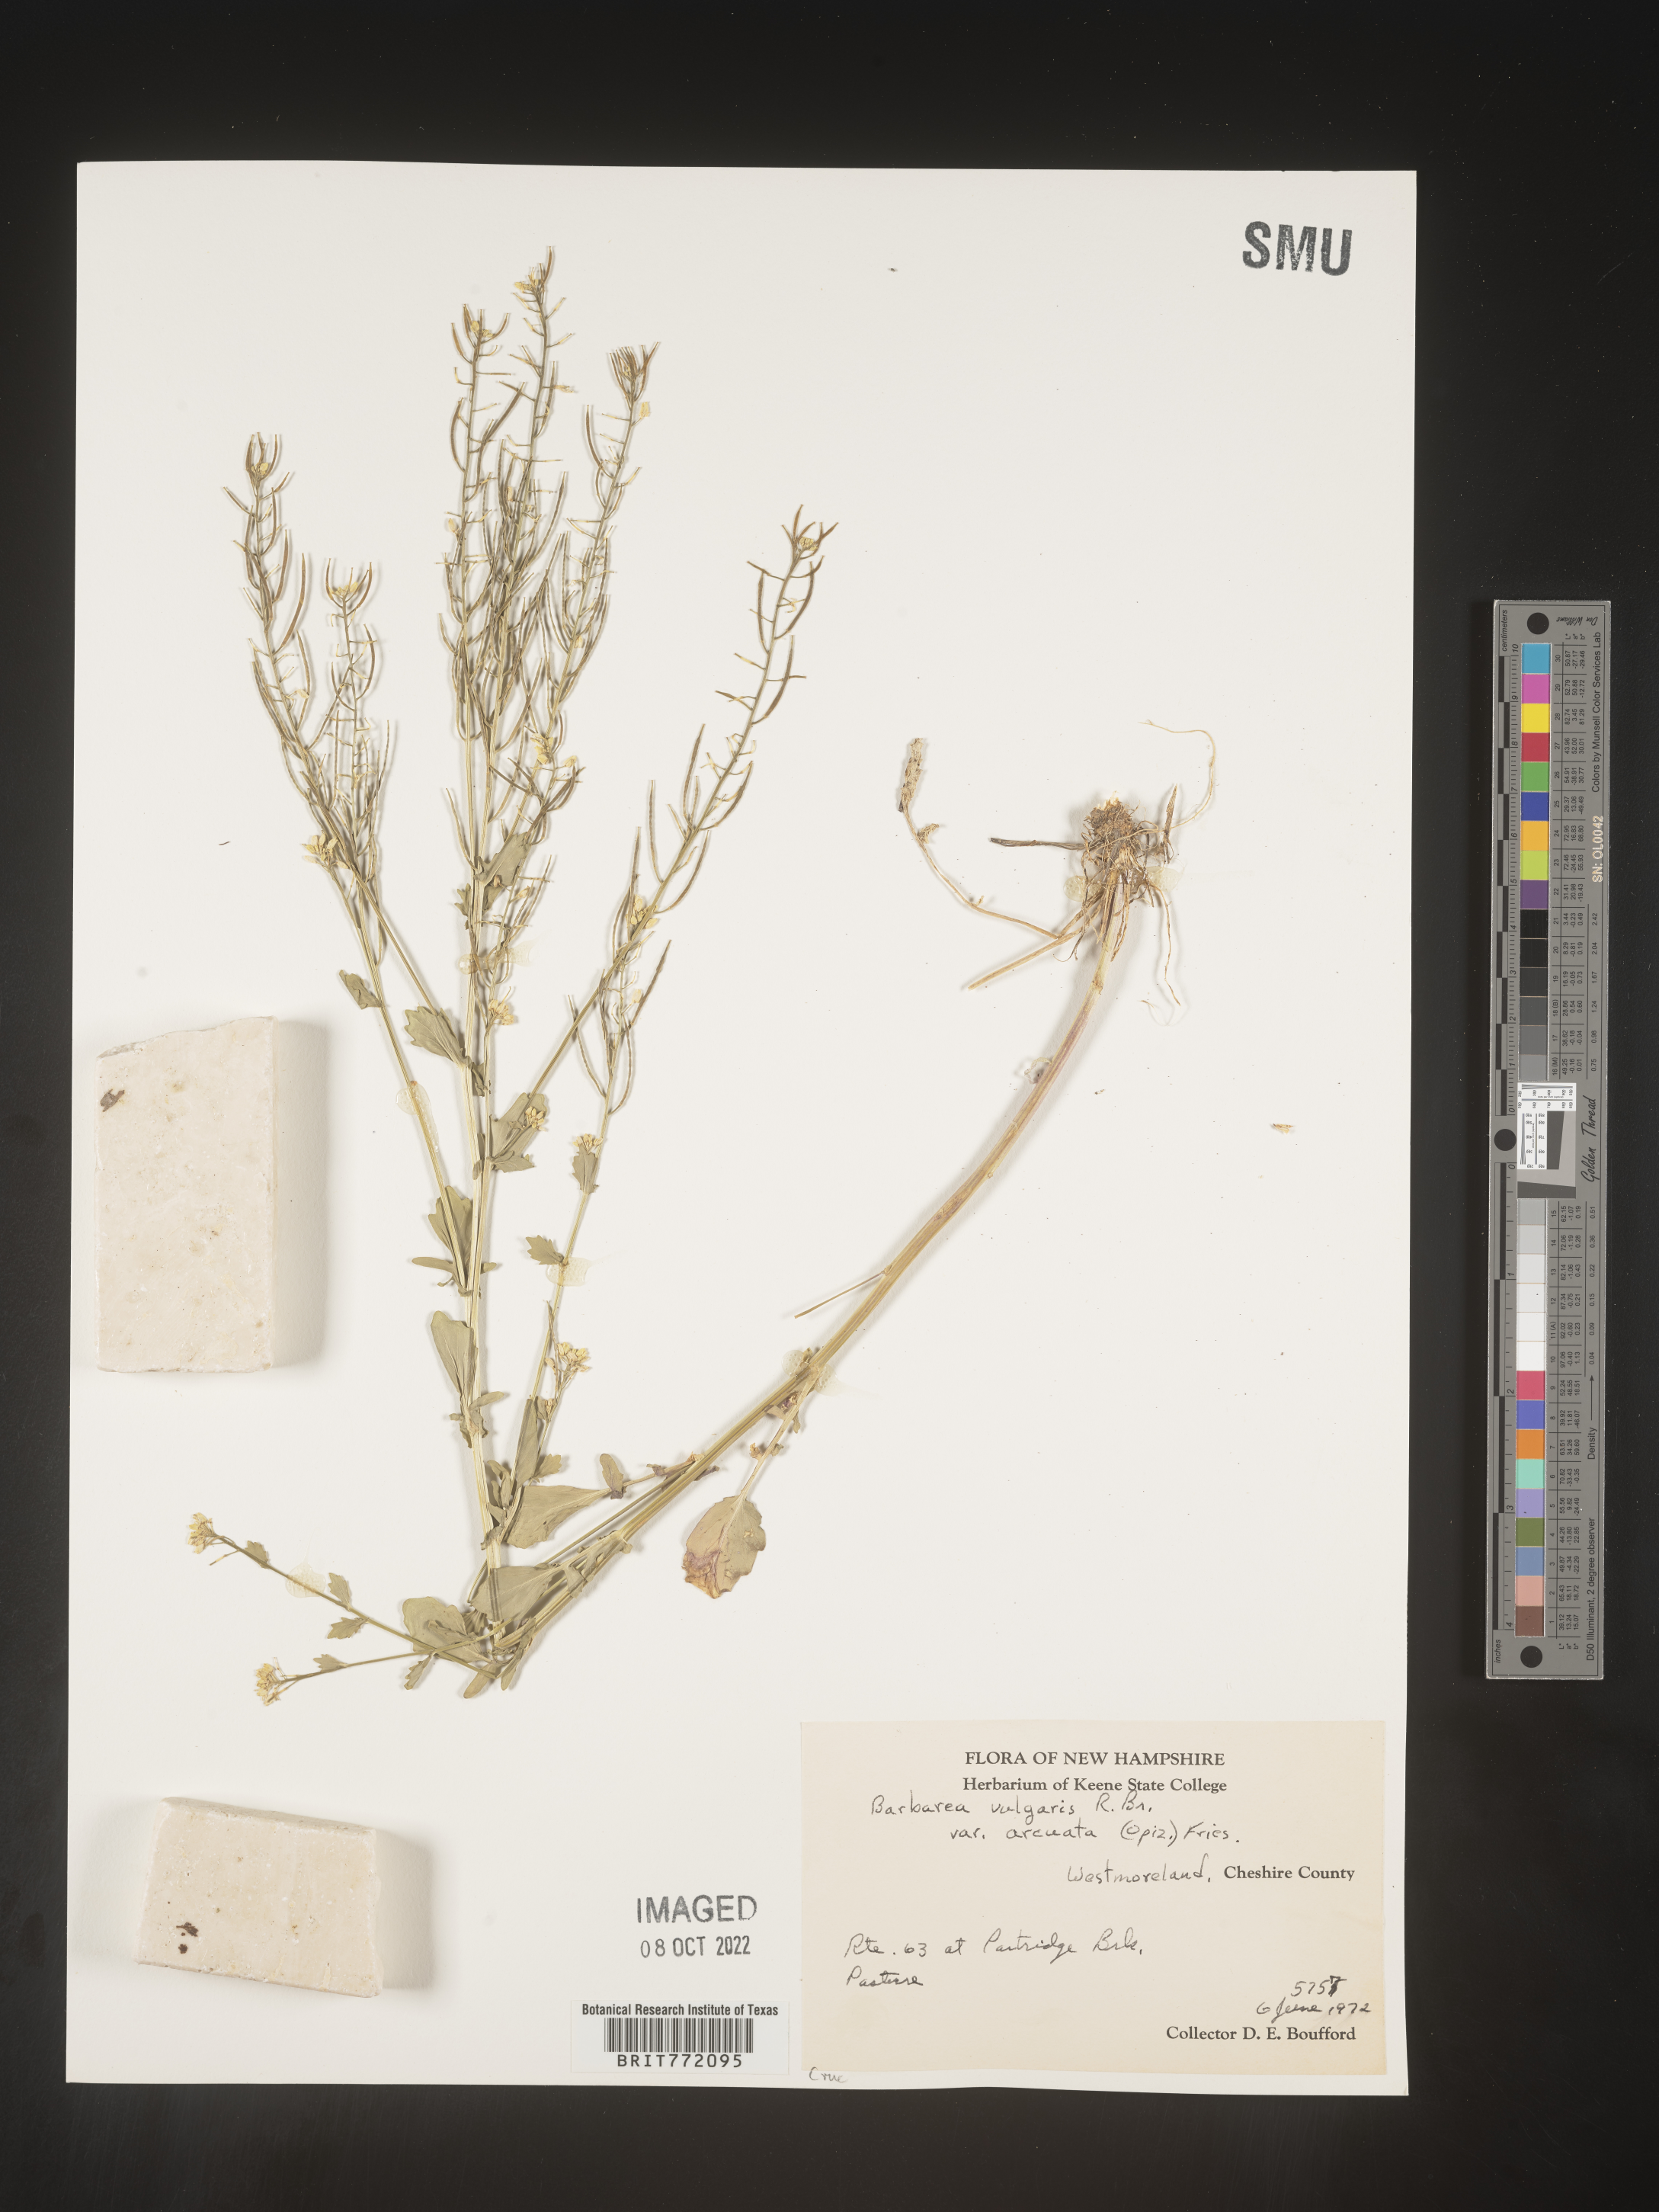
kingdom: Plantae
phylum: Tracheophyta
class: Magnoliopsida
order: Brassicales
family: Brassicaceae
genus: Barbarea
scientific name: Barbarea vulgaris
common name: Cressy-greens
